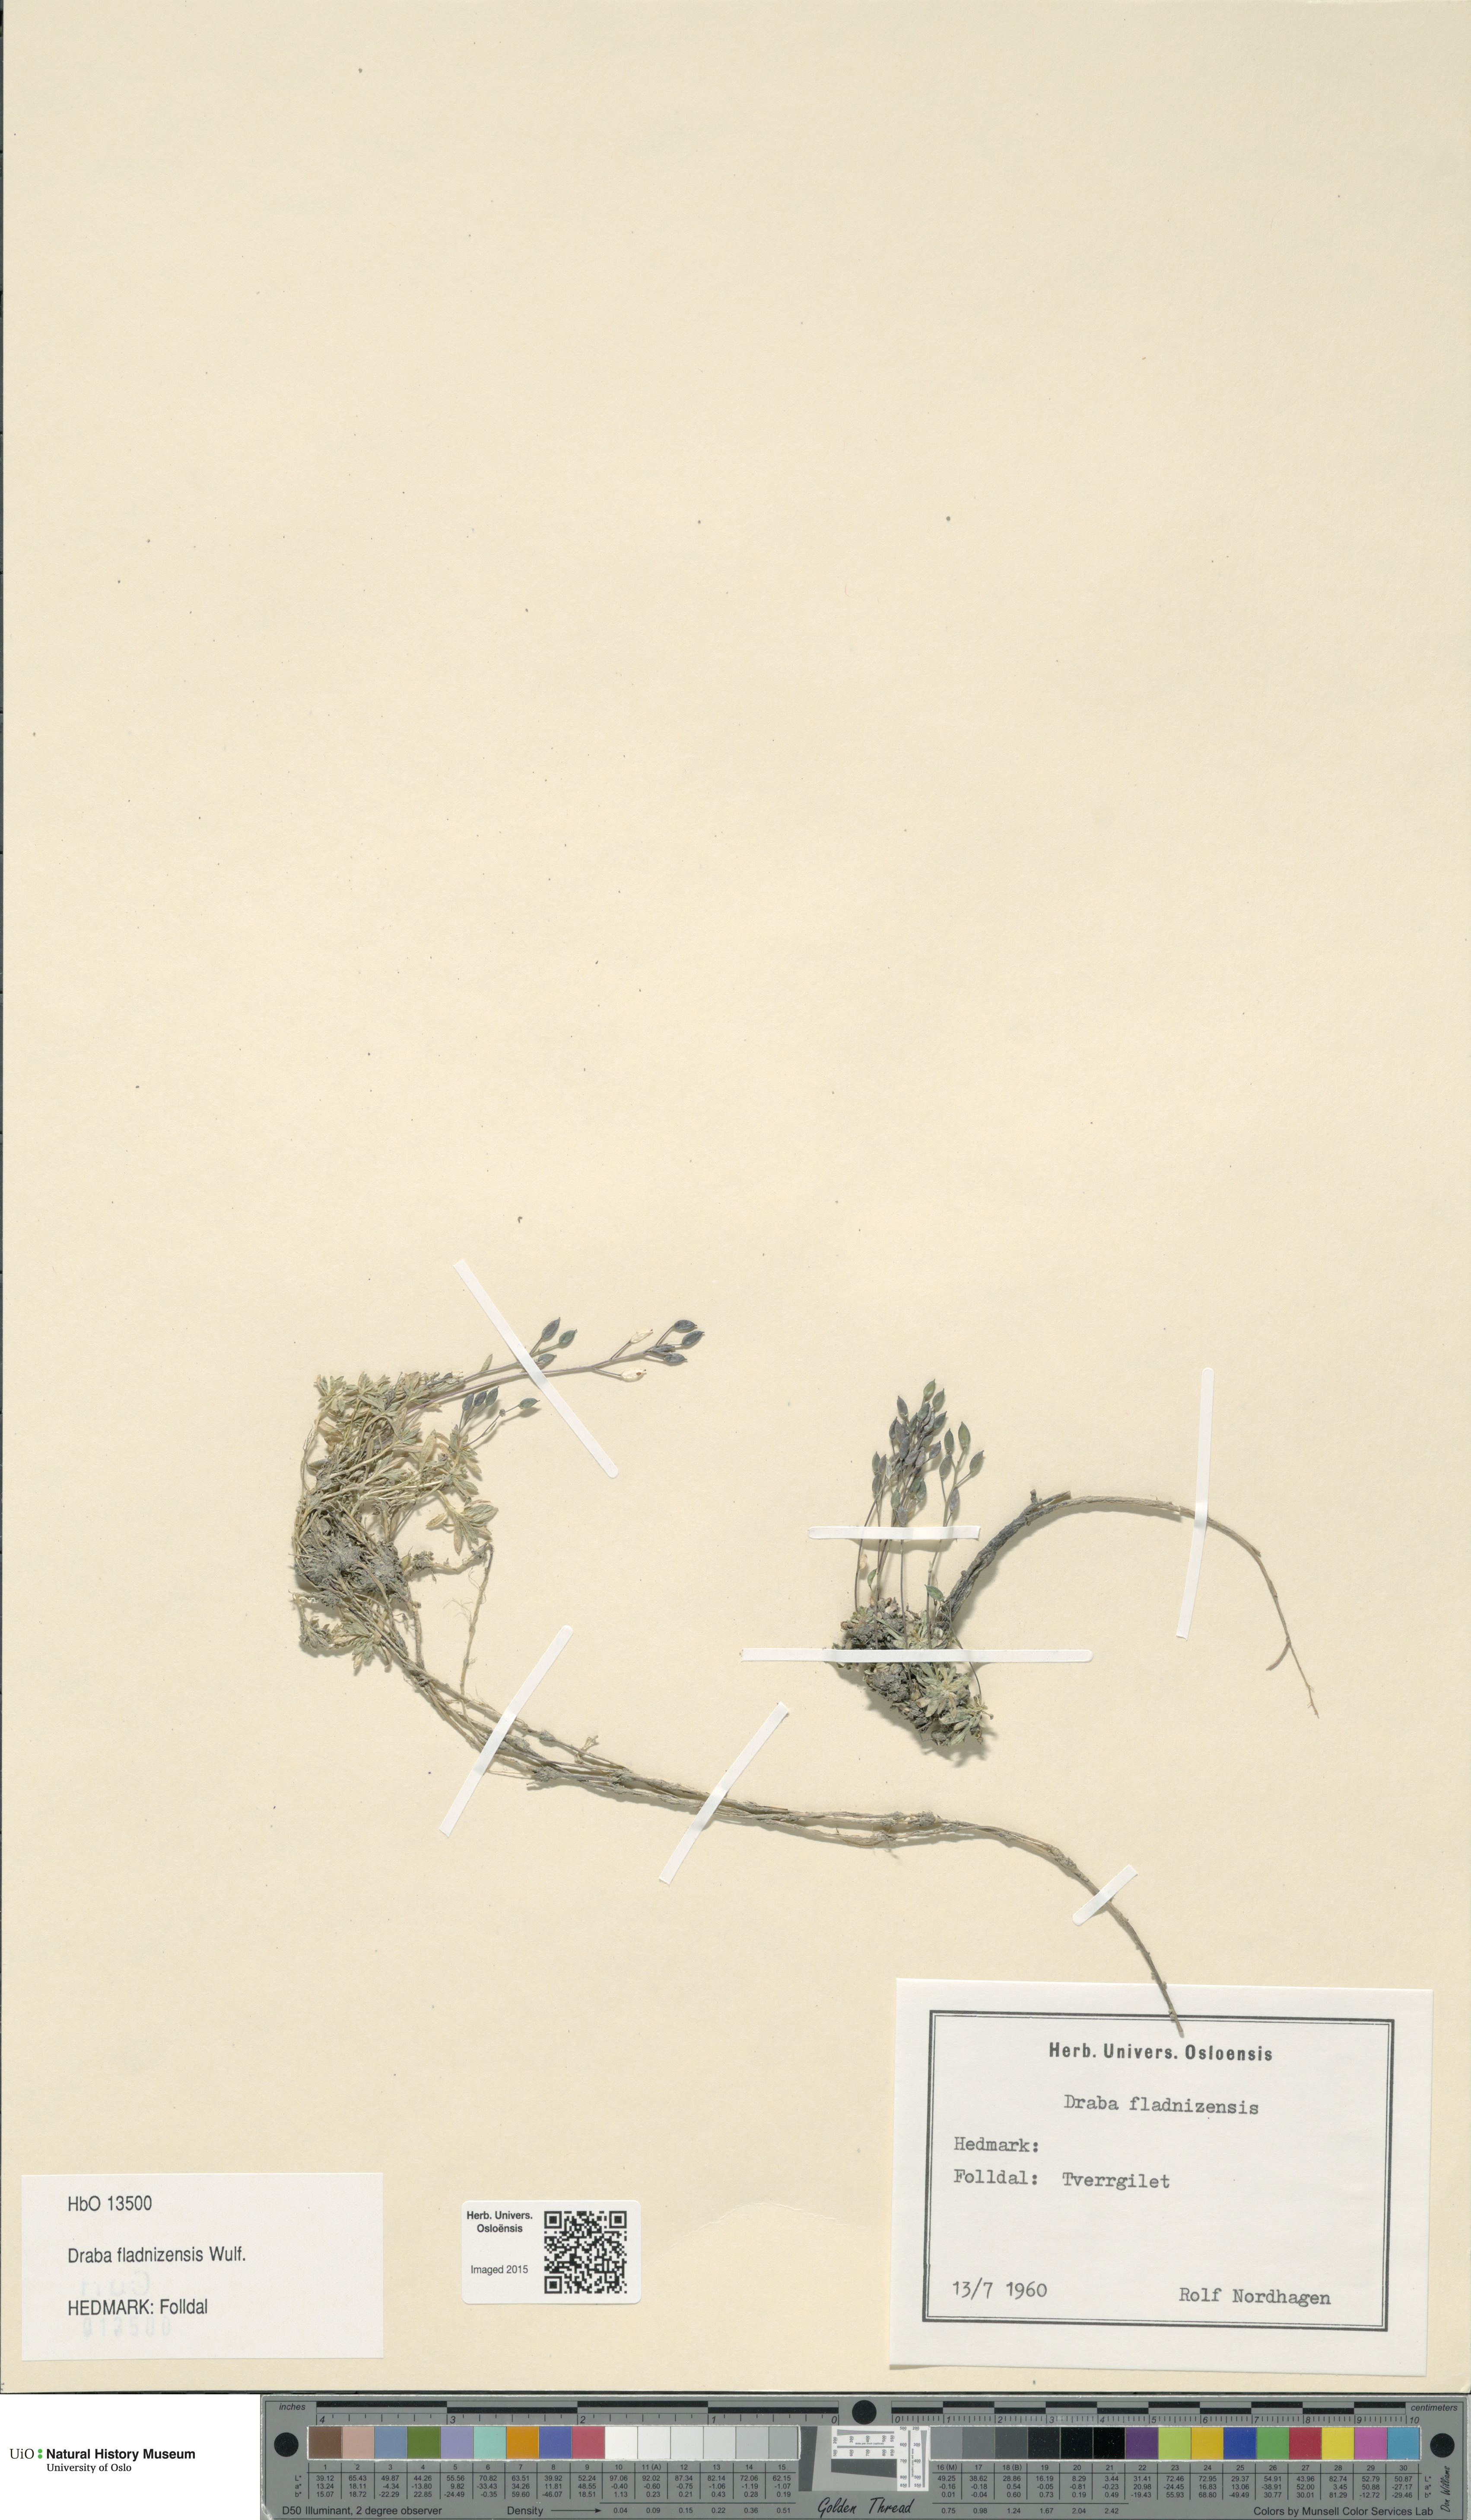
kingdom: Plantae
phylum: Tracheophyta
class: Magnoliopsida
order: Brassicales
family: Brassicaceae
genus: Draba
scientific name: Draba fladnizensis
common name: Austrian draba
